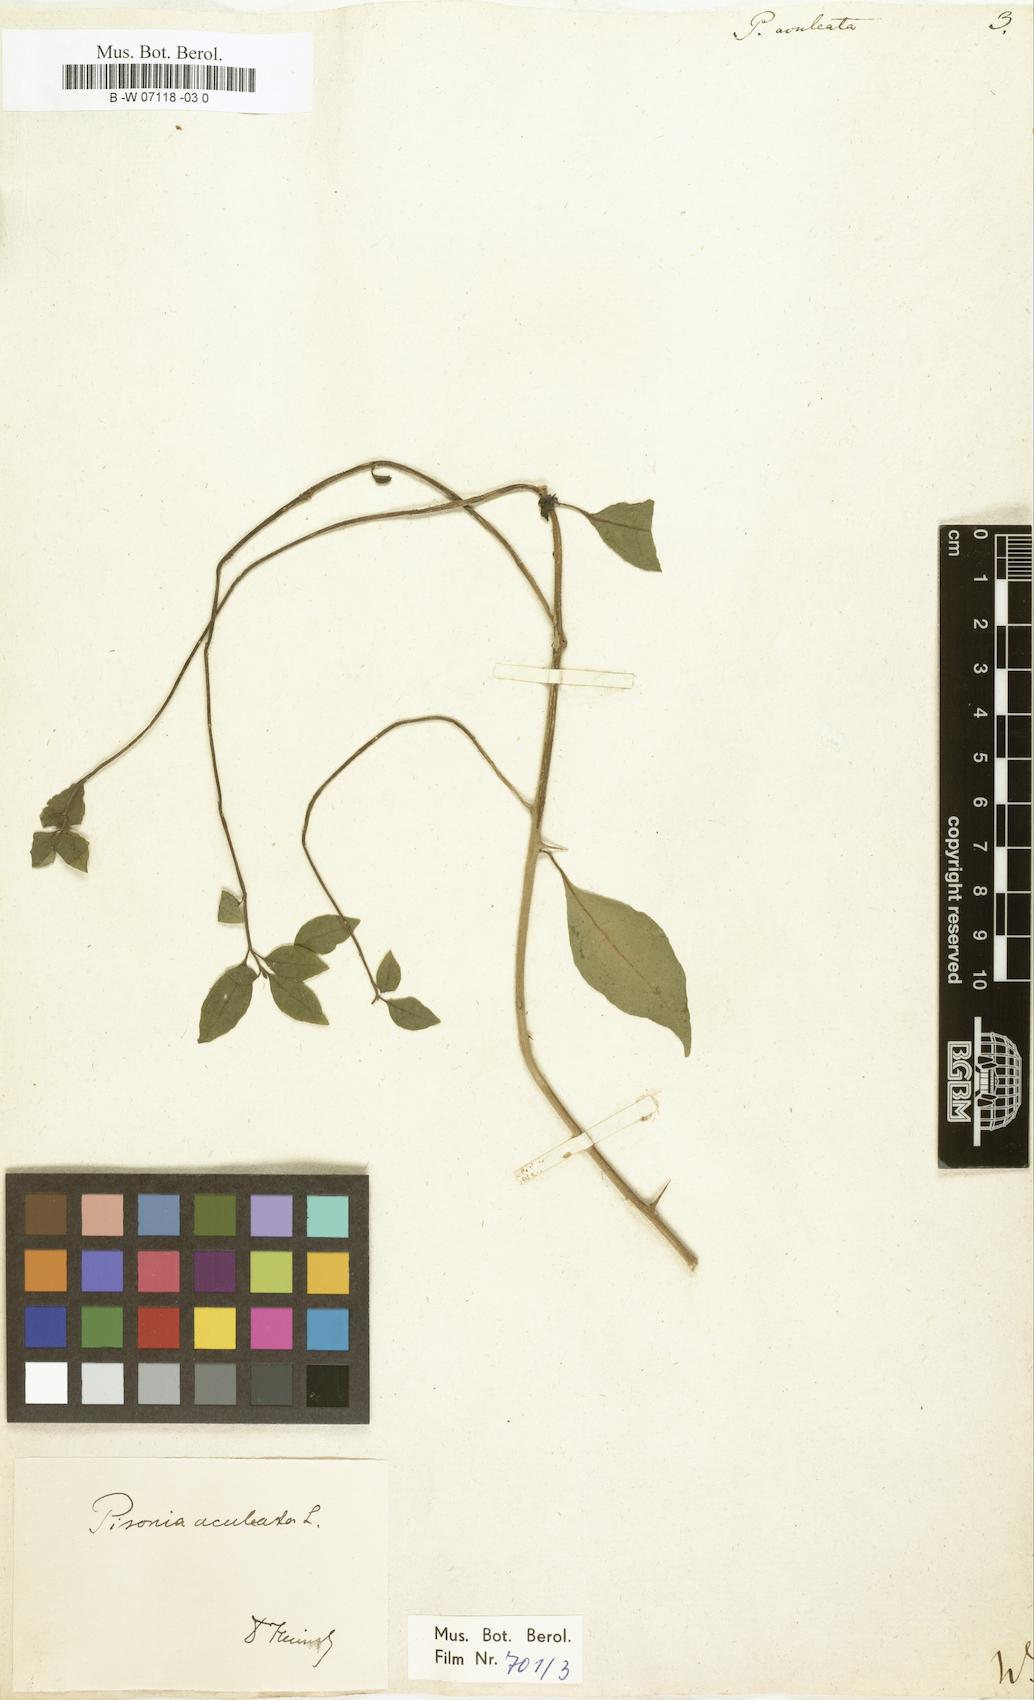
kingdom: Plantae
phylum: Tracheophyta
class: Magnoliopsida
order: Caryophyllales
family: Nyctaginaceae
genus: Pisonia
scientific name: Pisonia aculeata
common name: Cockspur vine
